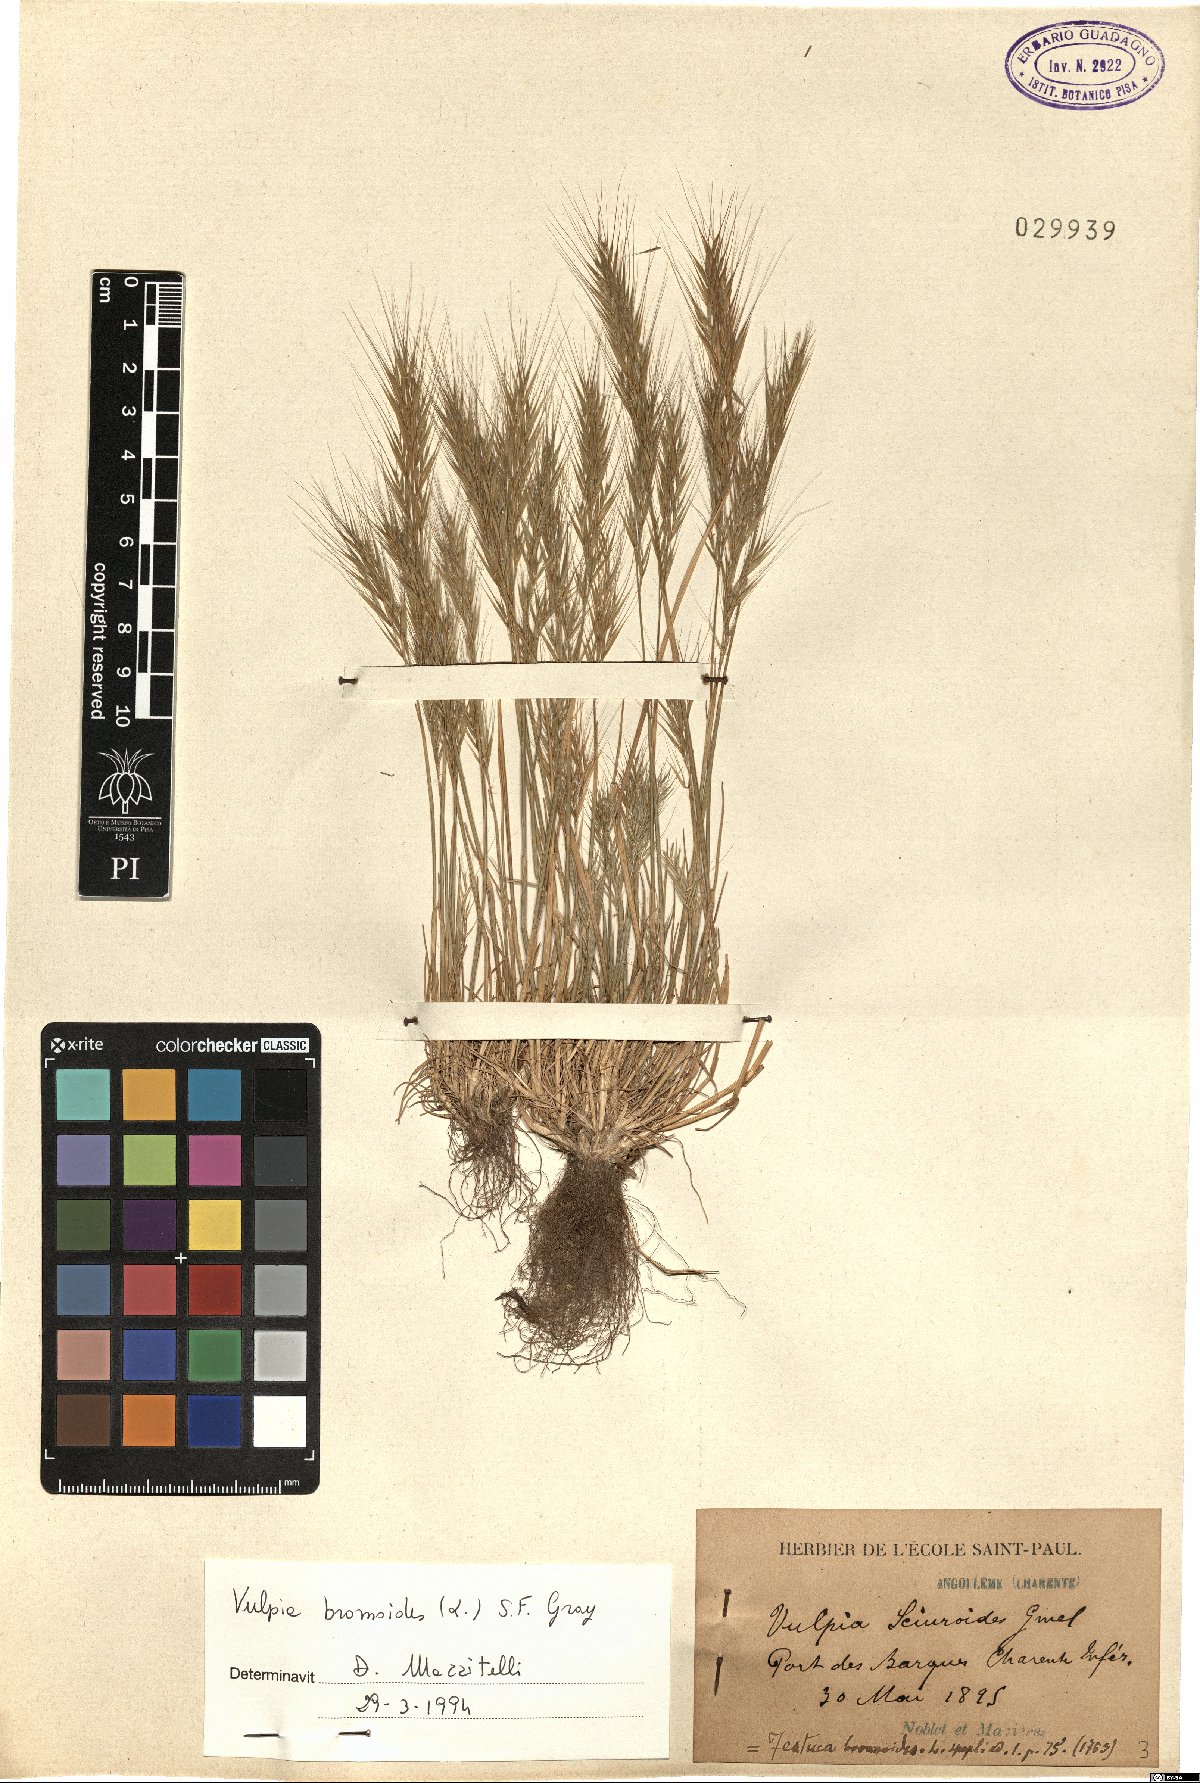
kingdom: Plantae
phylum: Tracheophyta
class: Liliopsida
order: Poales
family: Poaceae
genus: Festuca
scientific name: Festuca bromoides
